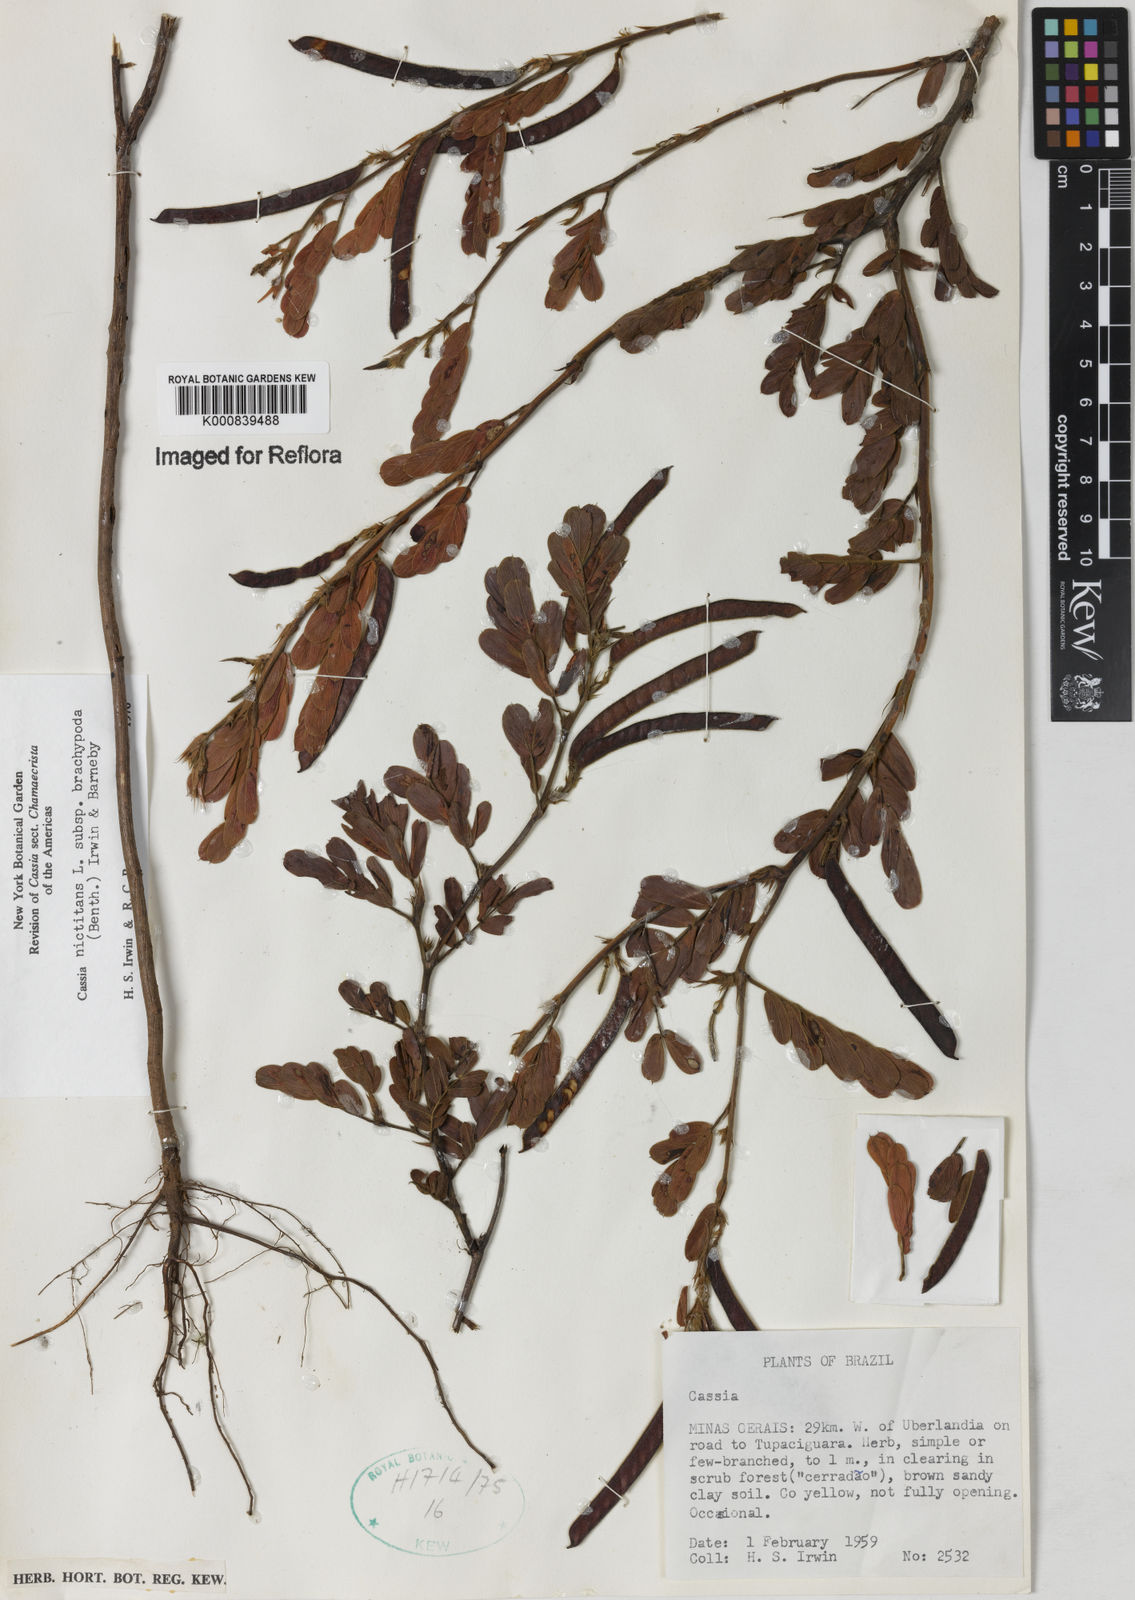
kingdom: Plantae
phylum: Tracheophyta
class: Magnoliopsida
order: Fabales
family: Fabaceae
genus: Chamaecrista
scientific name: Chamaecrista nictitans
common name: Sensitive cassia
